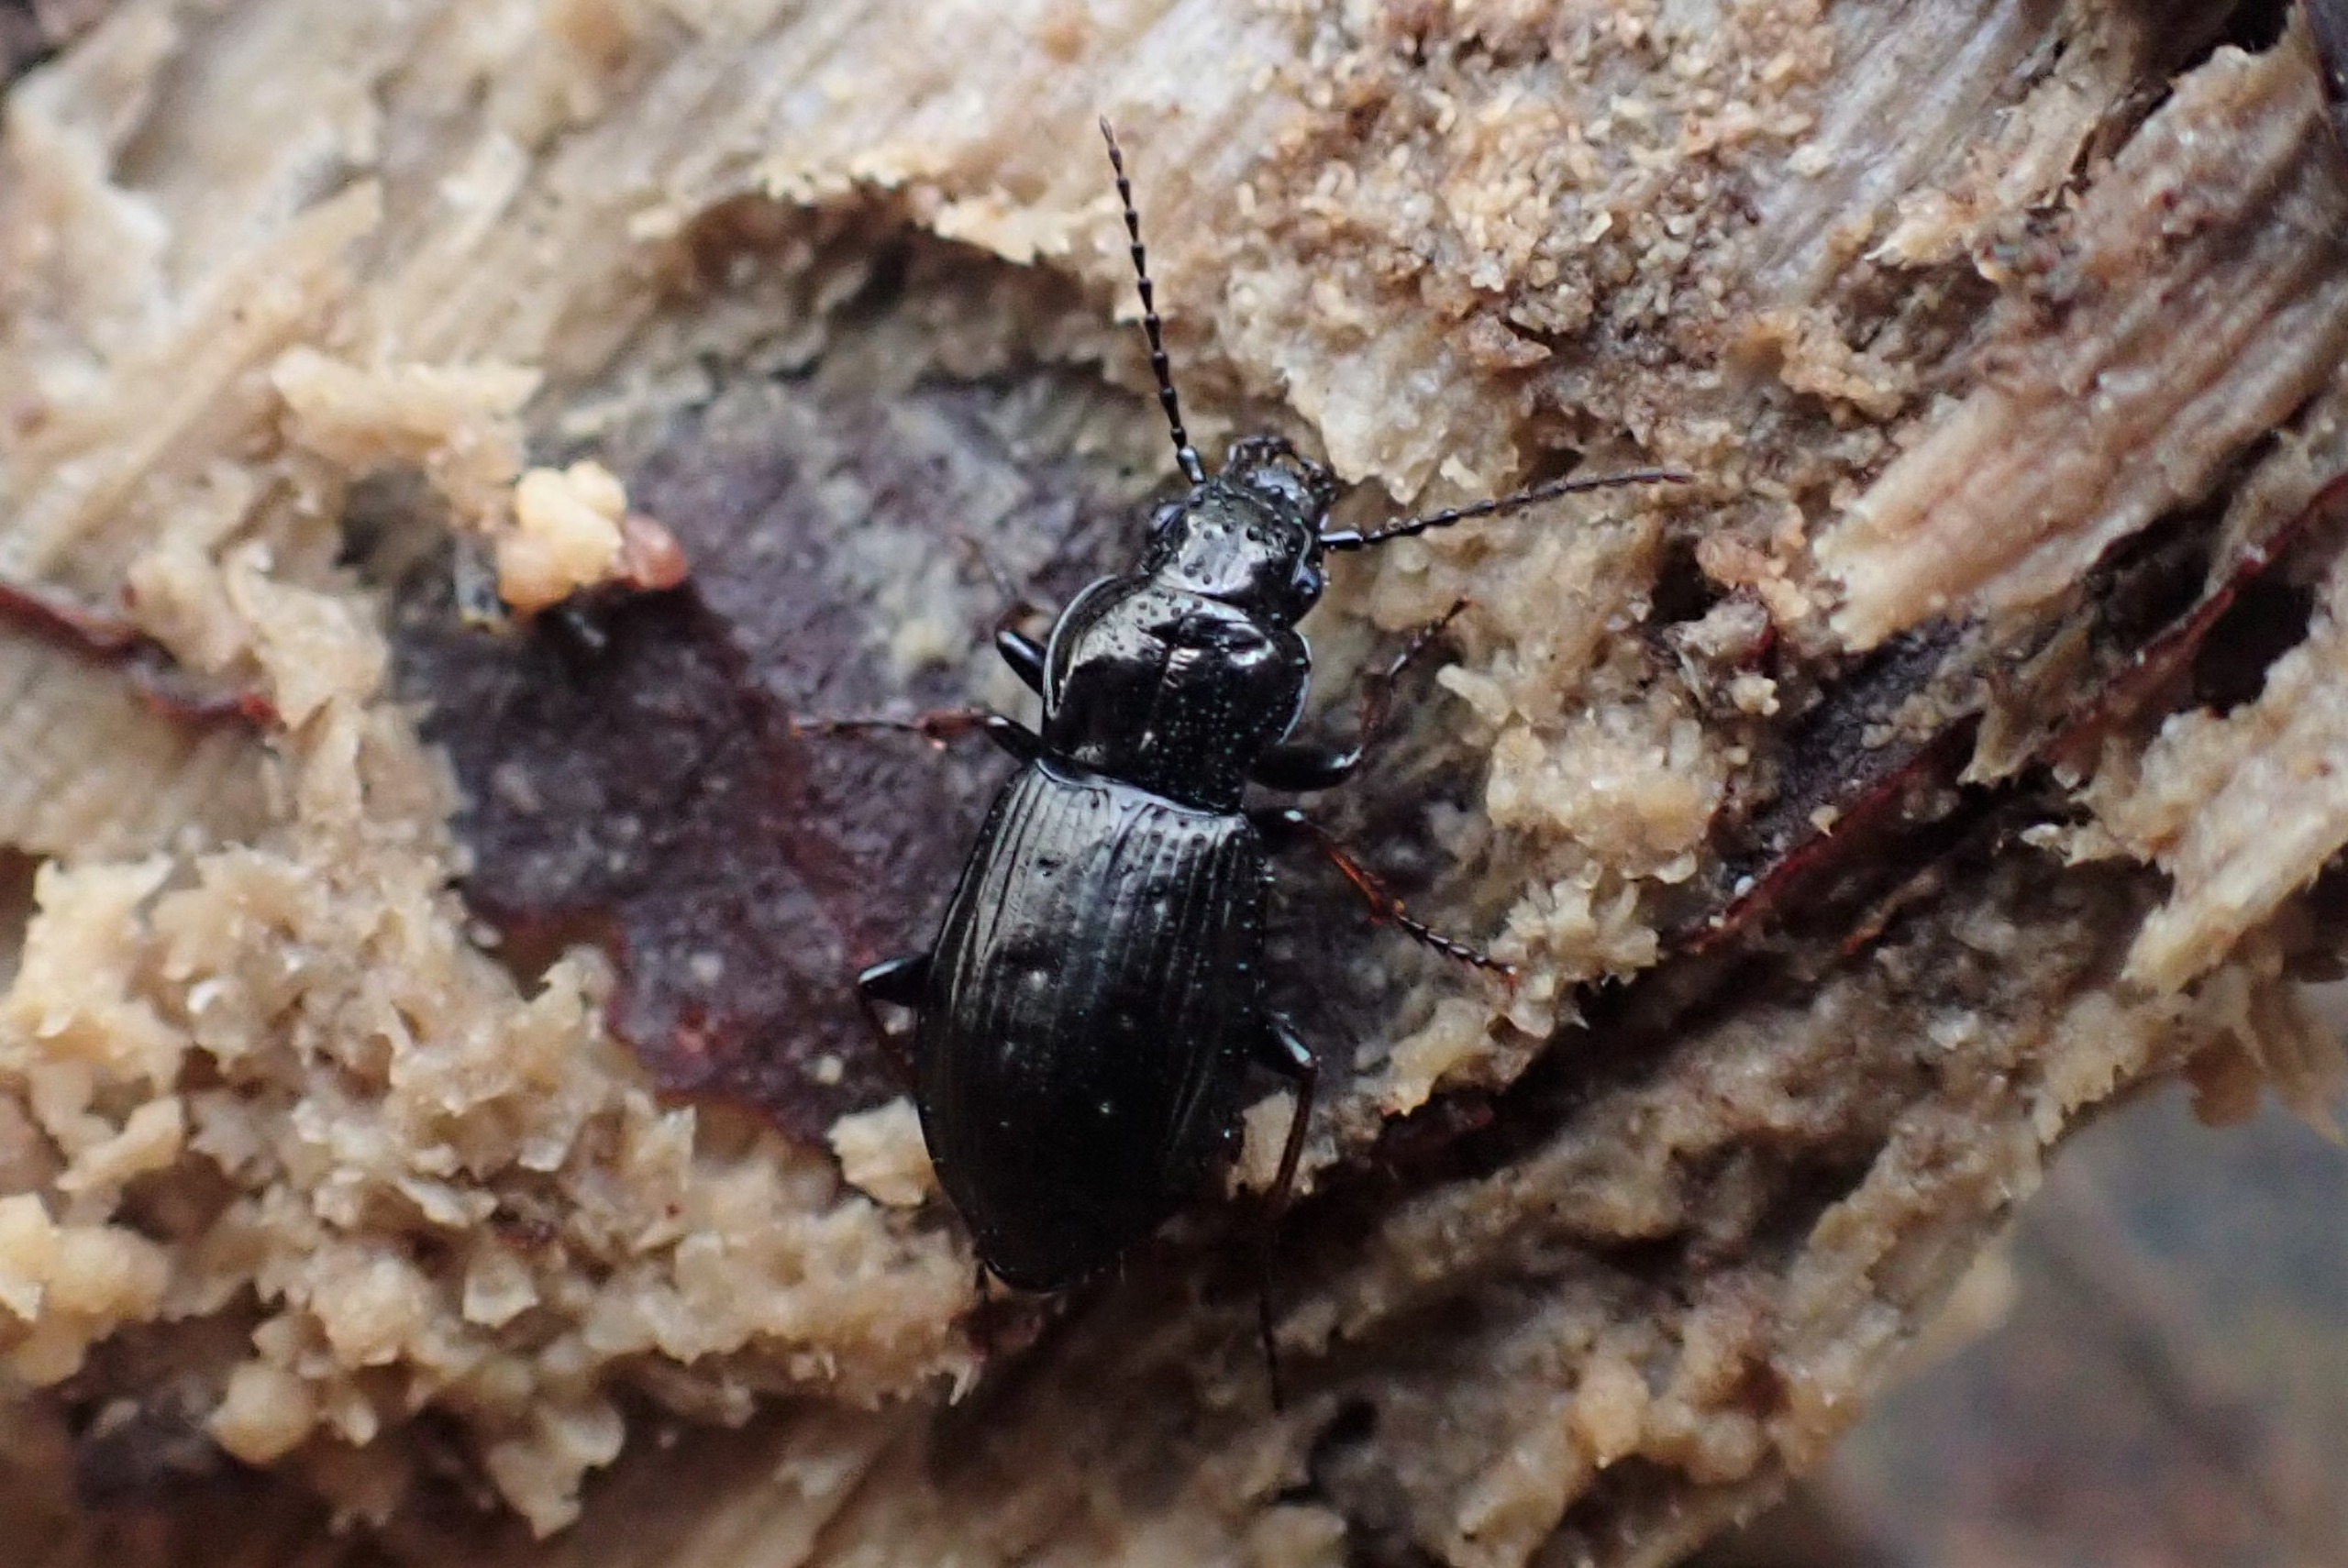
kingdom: Animalia
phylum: Arthropoda
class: Insecta
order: Coleoptera
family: Carabidae
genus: Pterostichus
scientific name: Pterostichus oblongopunctatus
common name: Bronzejordløber
